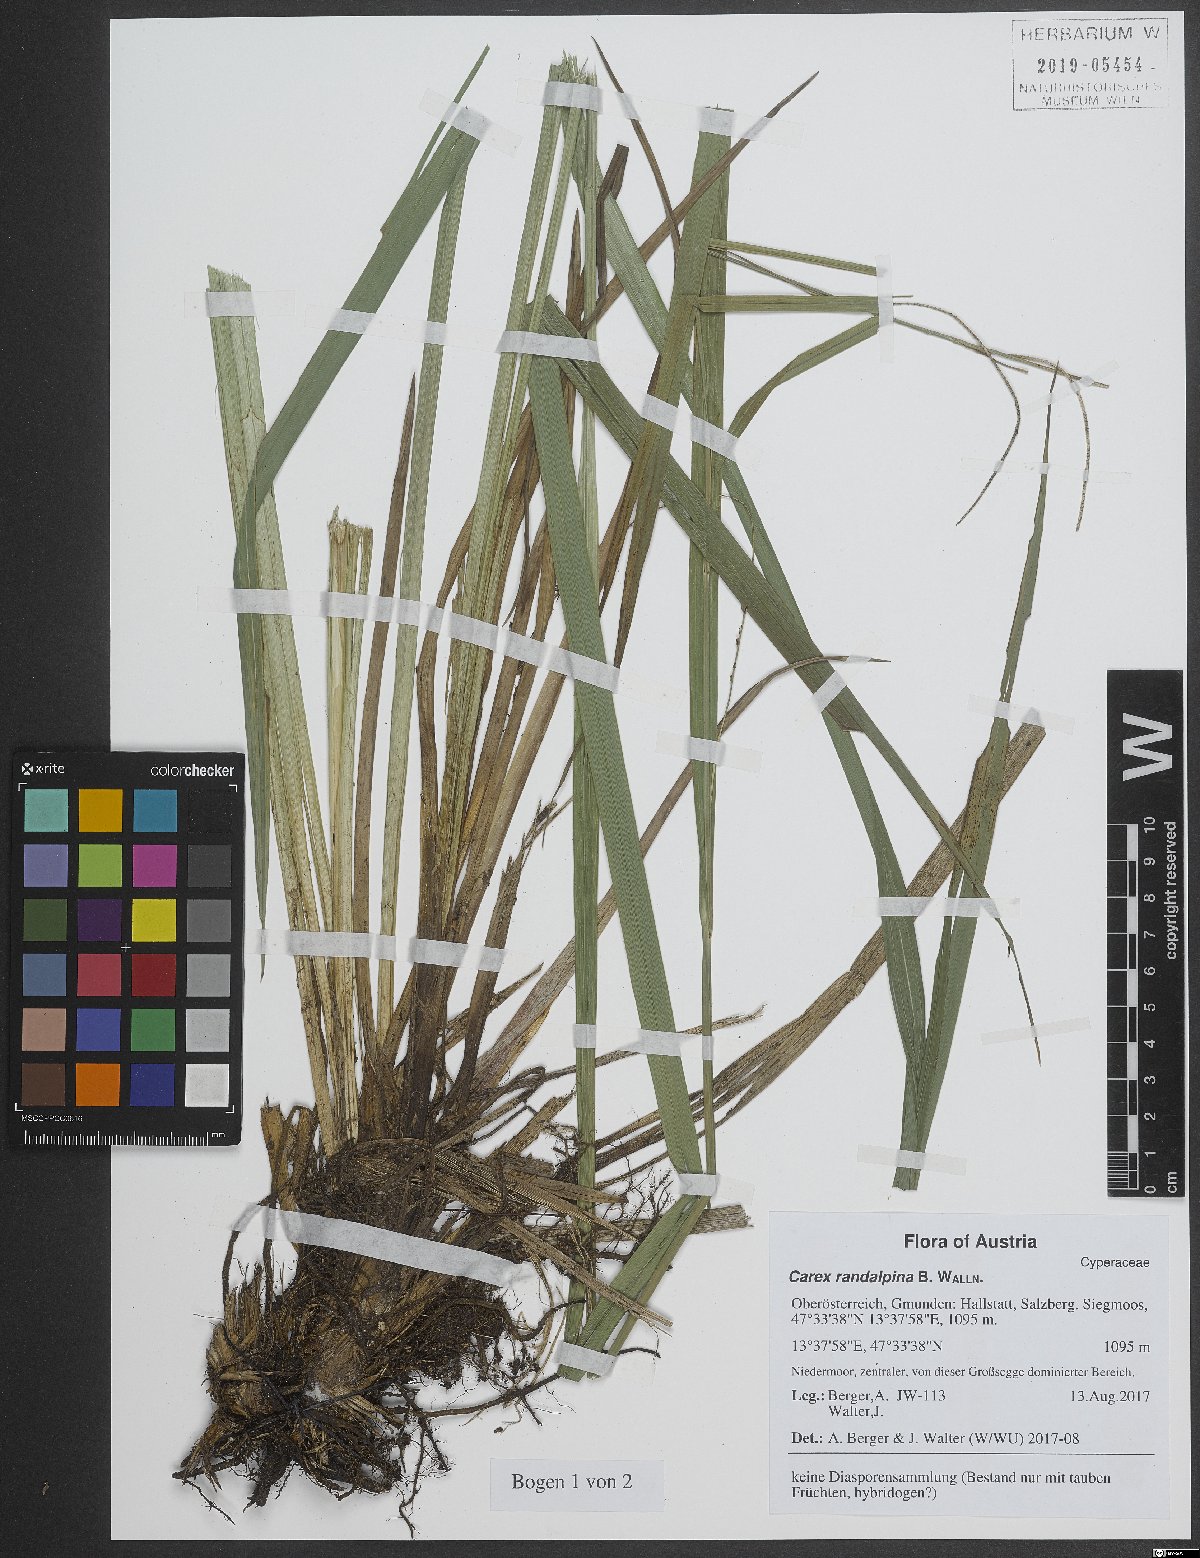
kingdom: Plantae
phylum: Tracheophyta
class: Liliopsida
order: Poales
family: Cyperaceae
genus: Carex
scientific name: Carex randalpina
